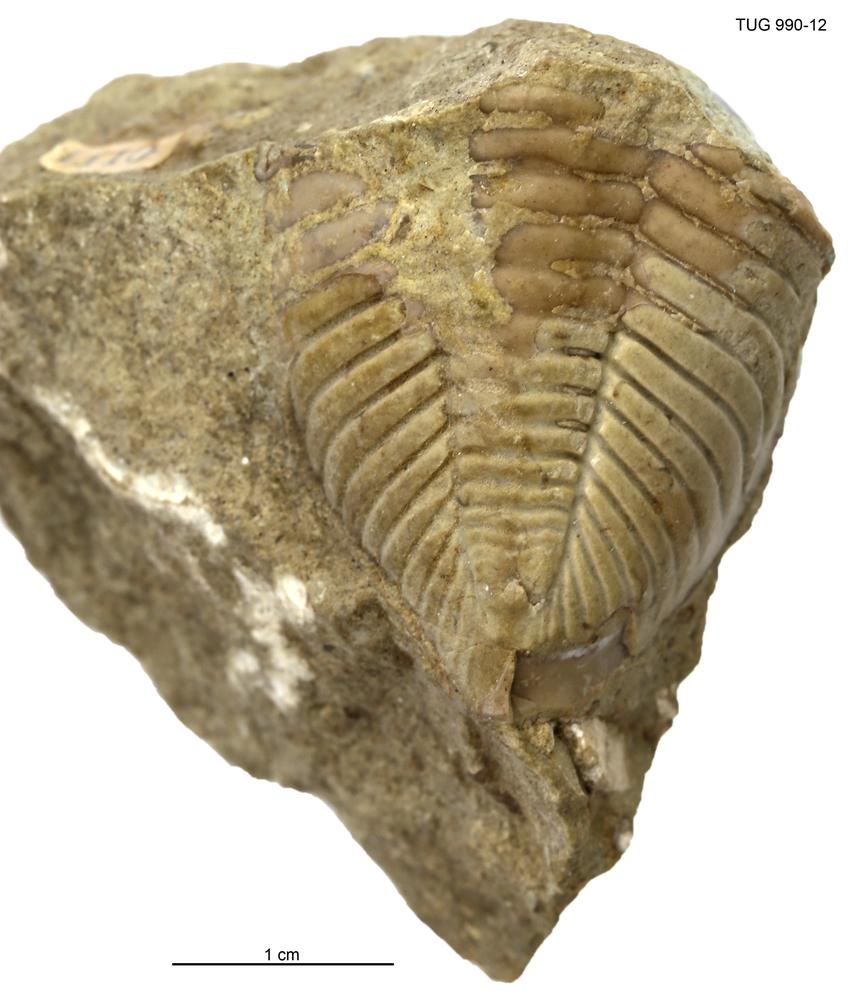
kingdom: Animalia
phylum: Arthropoda
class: Trilobita
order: Phacopida
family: Pterygometopidae
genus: Toxochasmops
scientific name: Toxochasmops proavus
